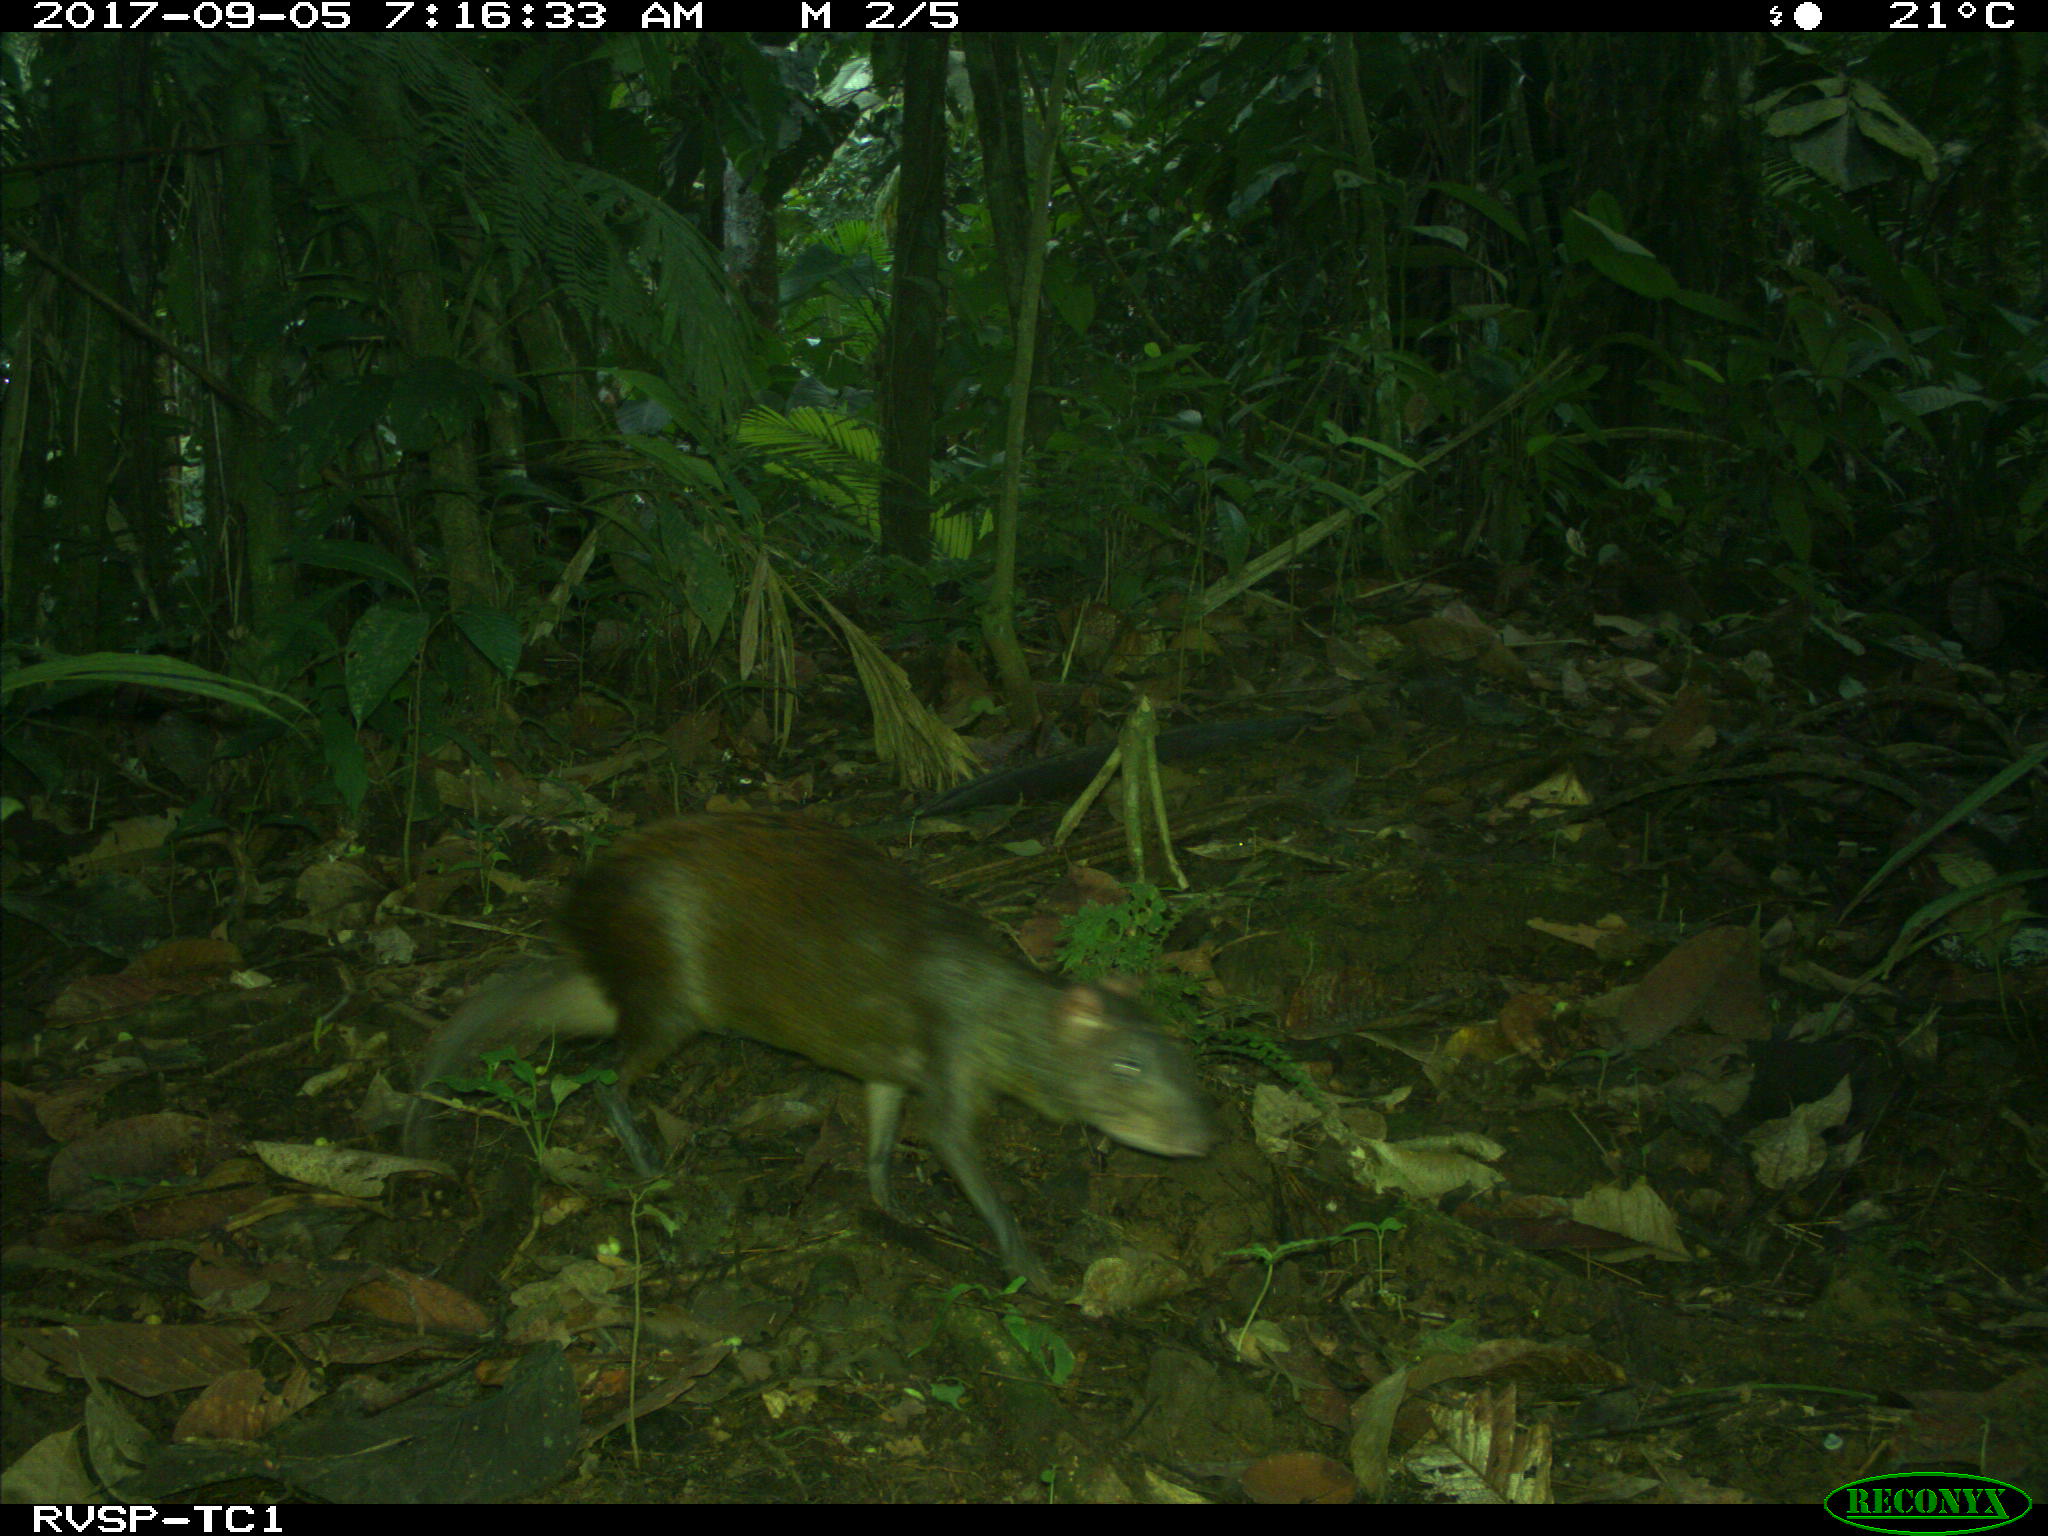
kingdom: Animalia
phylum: Chordata
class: Mammalia
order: Rodentia
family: Dasyproctidae
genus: Dasyprocta
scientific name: Dasyprocta punctata
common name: Central american agouti
